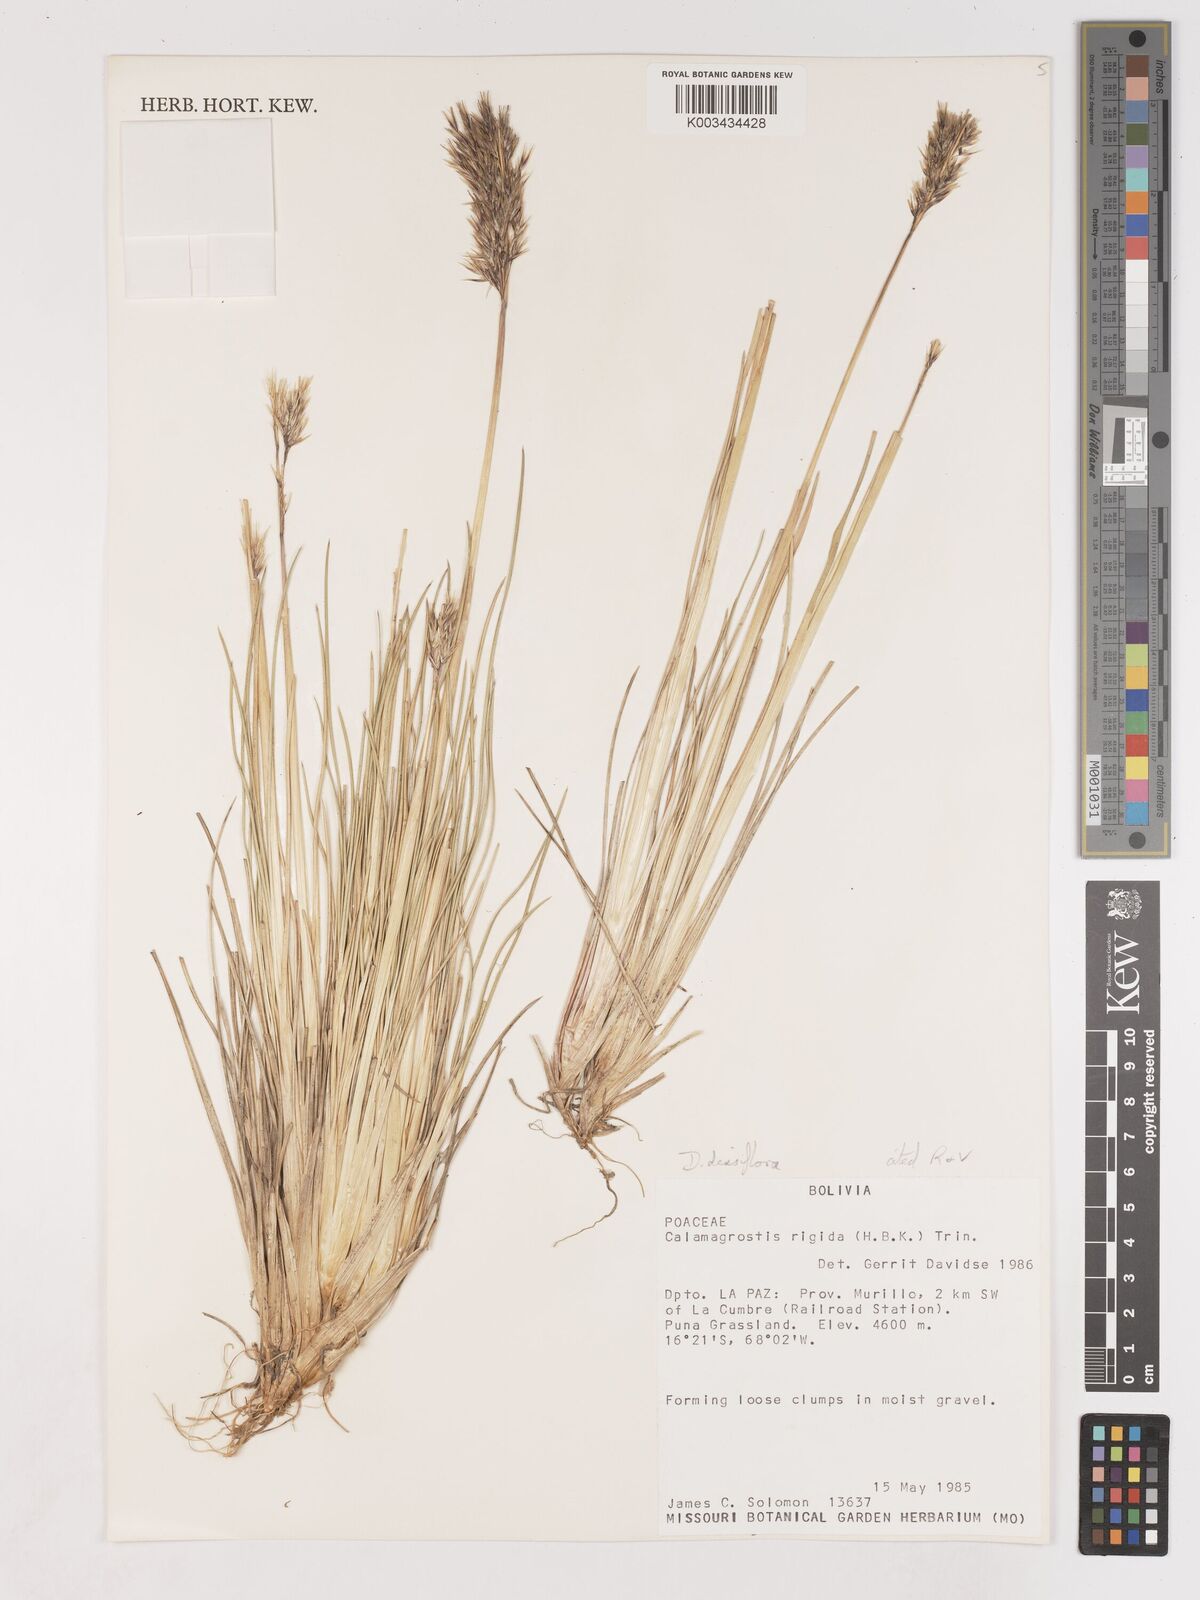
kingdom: Plantae
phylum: Tracheophyta
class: Liliopsida
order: Poales
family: Poaceae
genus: Cinnagrostis
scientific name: Cinnagrostis densiflora
